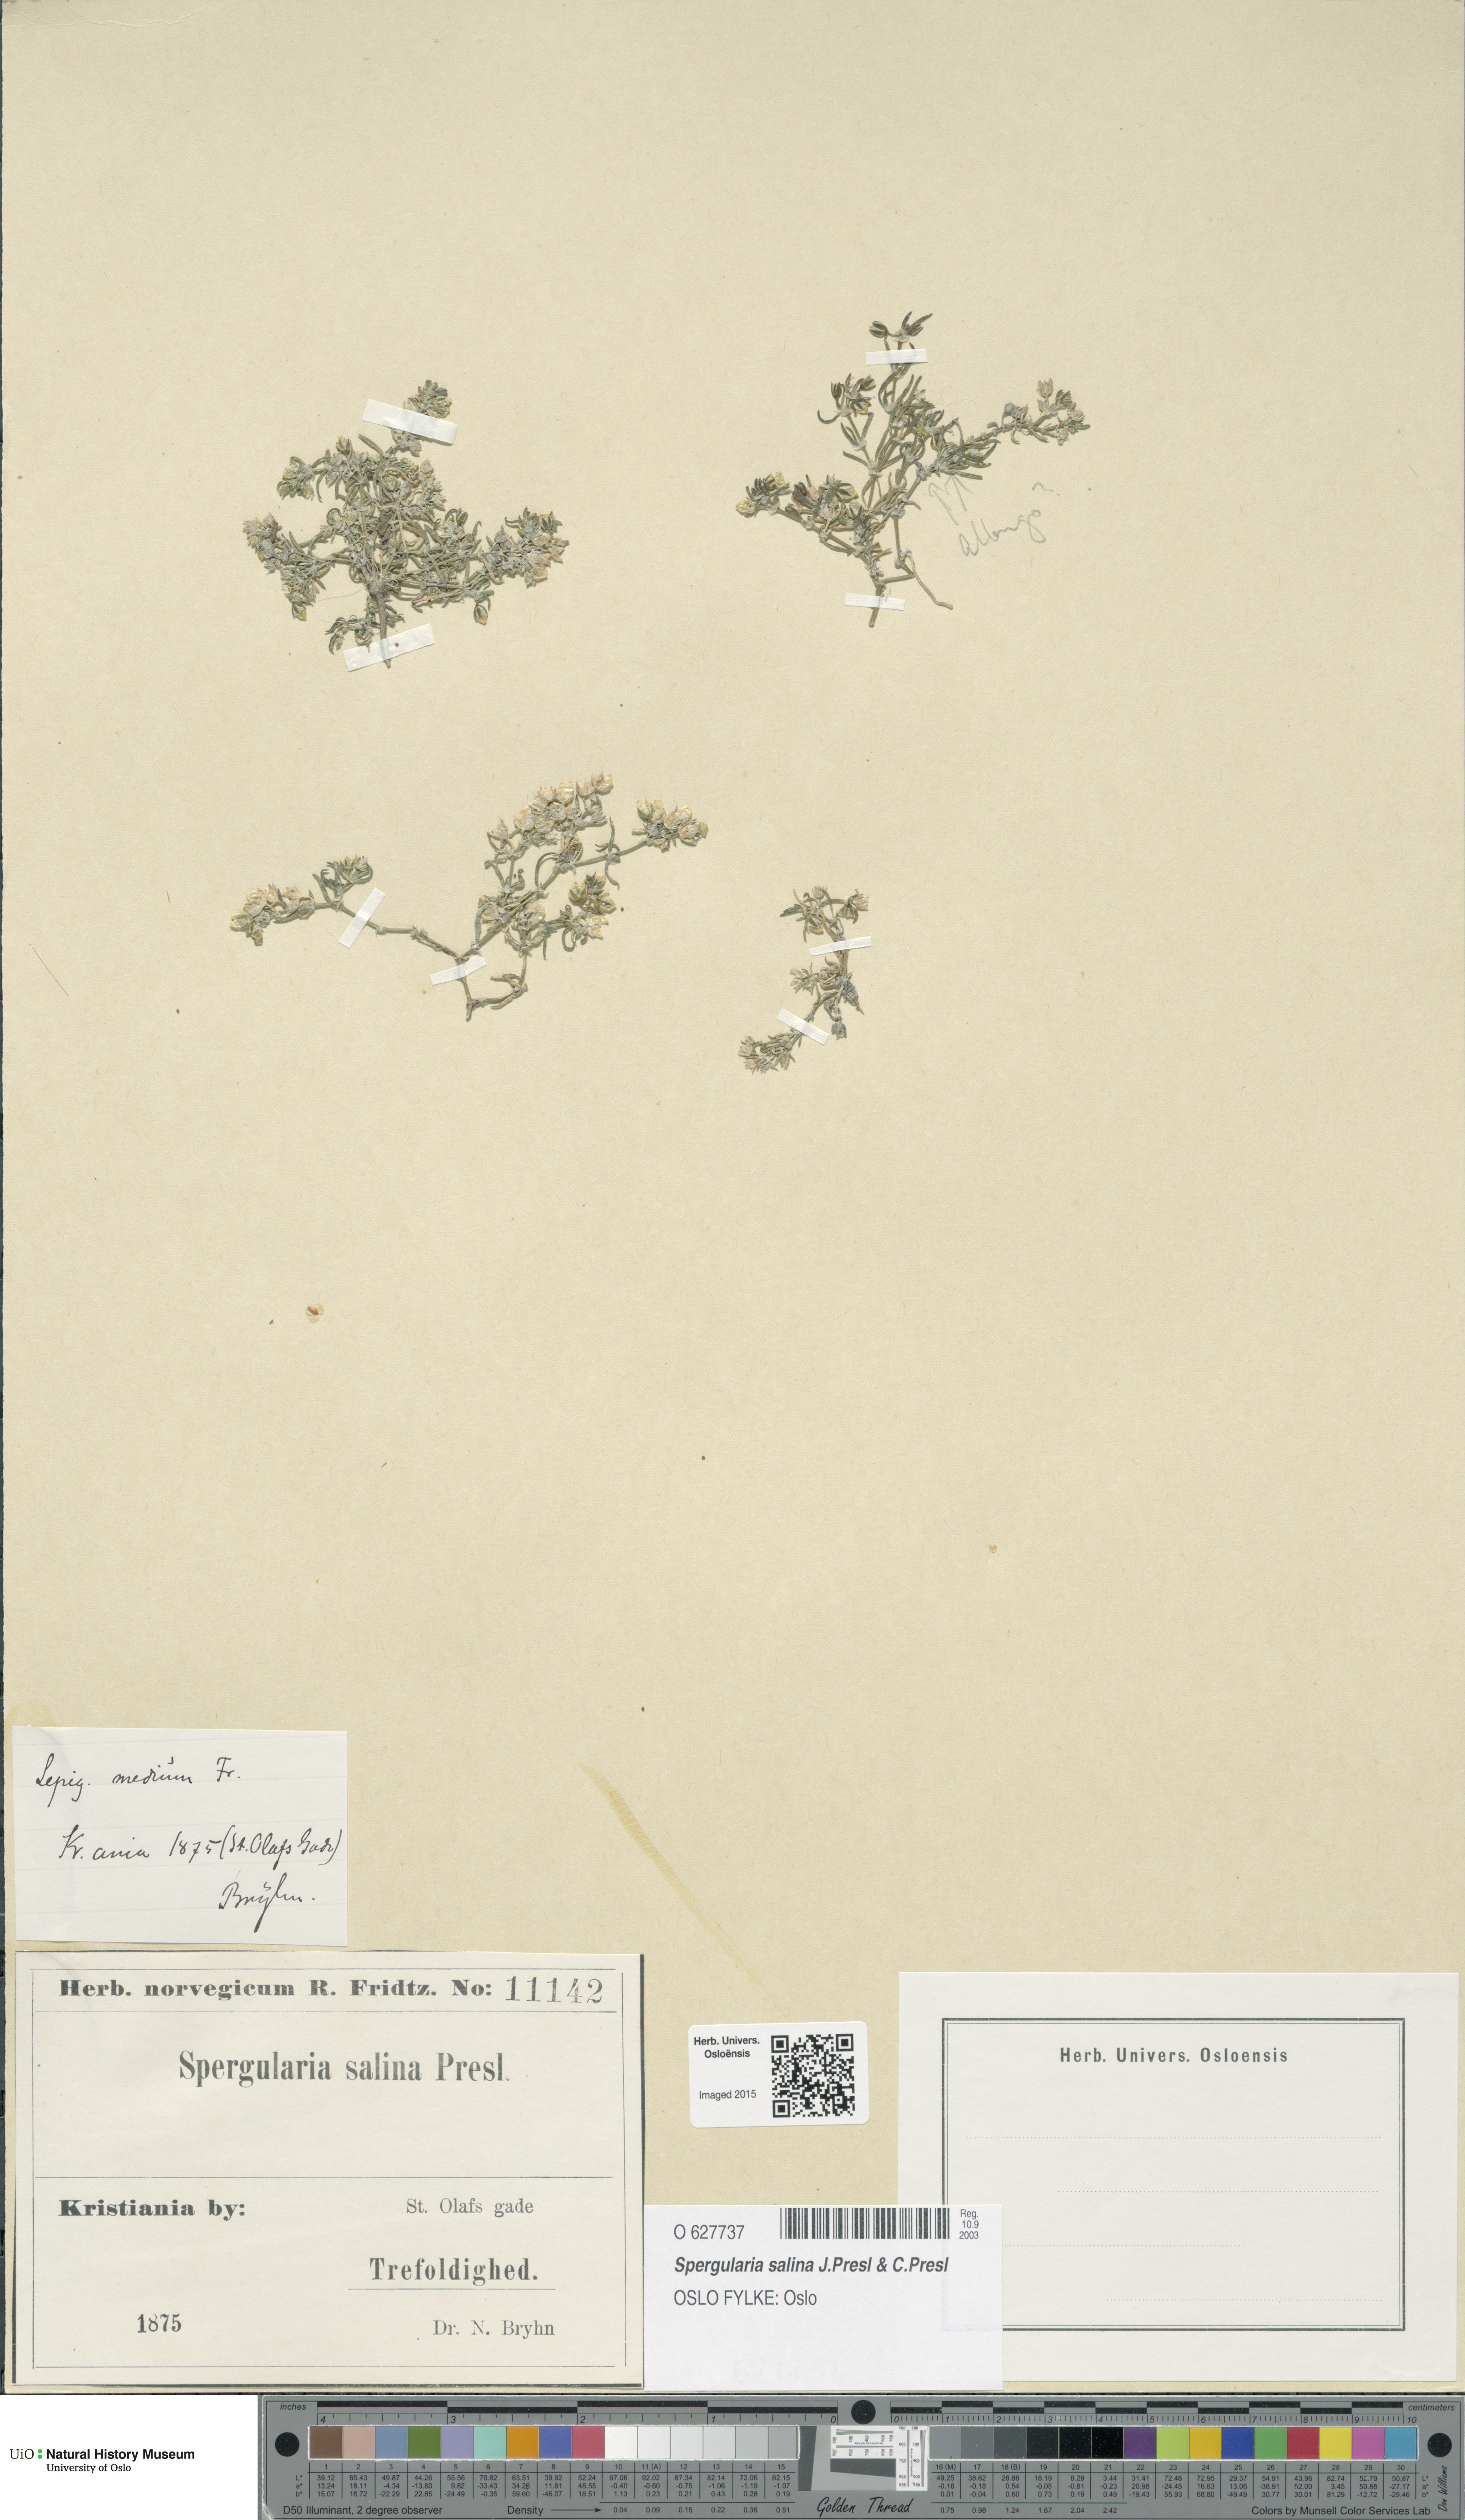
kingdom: Plantae
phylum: Tracheophyta
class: Magnoliopsida
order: Caryophyllales
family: Caryophyllaceae
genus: Spergularia
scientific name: Spergularia marina
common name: Lesser sea-spurrey
